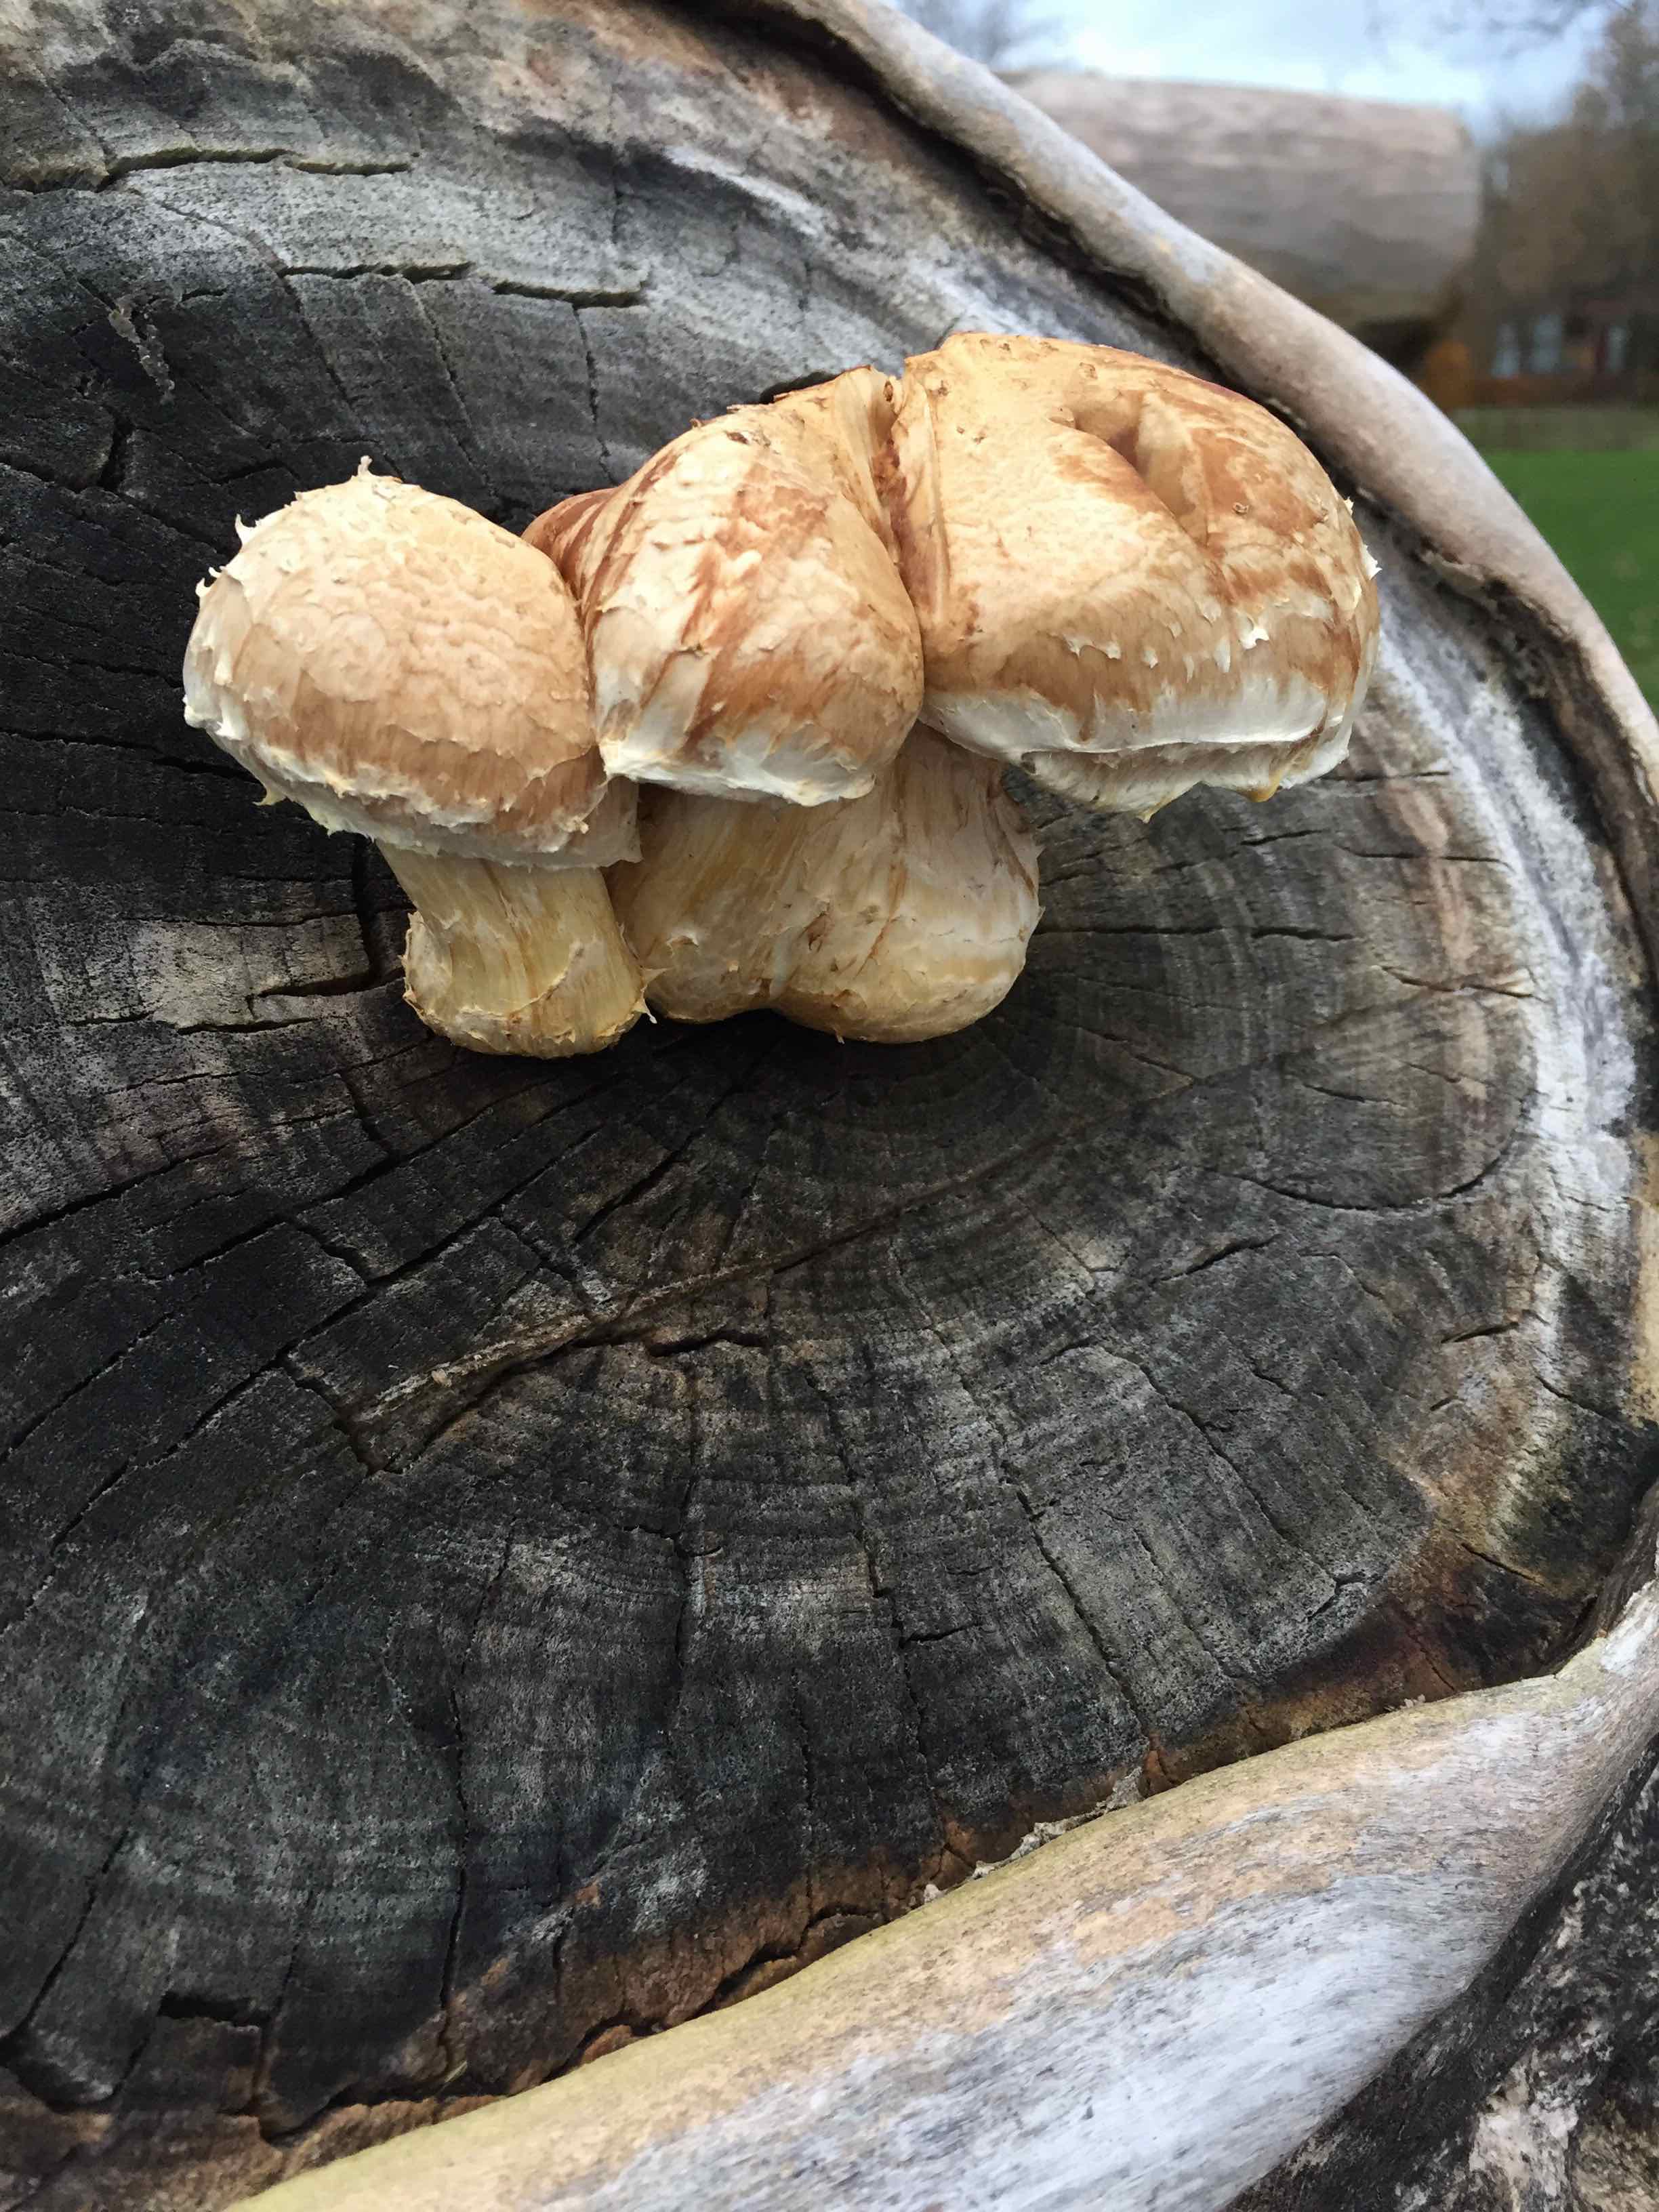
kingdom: Fungi
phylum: Basidiomycota
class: Agaricomycetes
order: Agaricales
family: Strophariaceae
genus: Pholiota
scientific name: Pholiota populnea
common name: poppel-kæmpeskælhat
